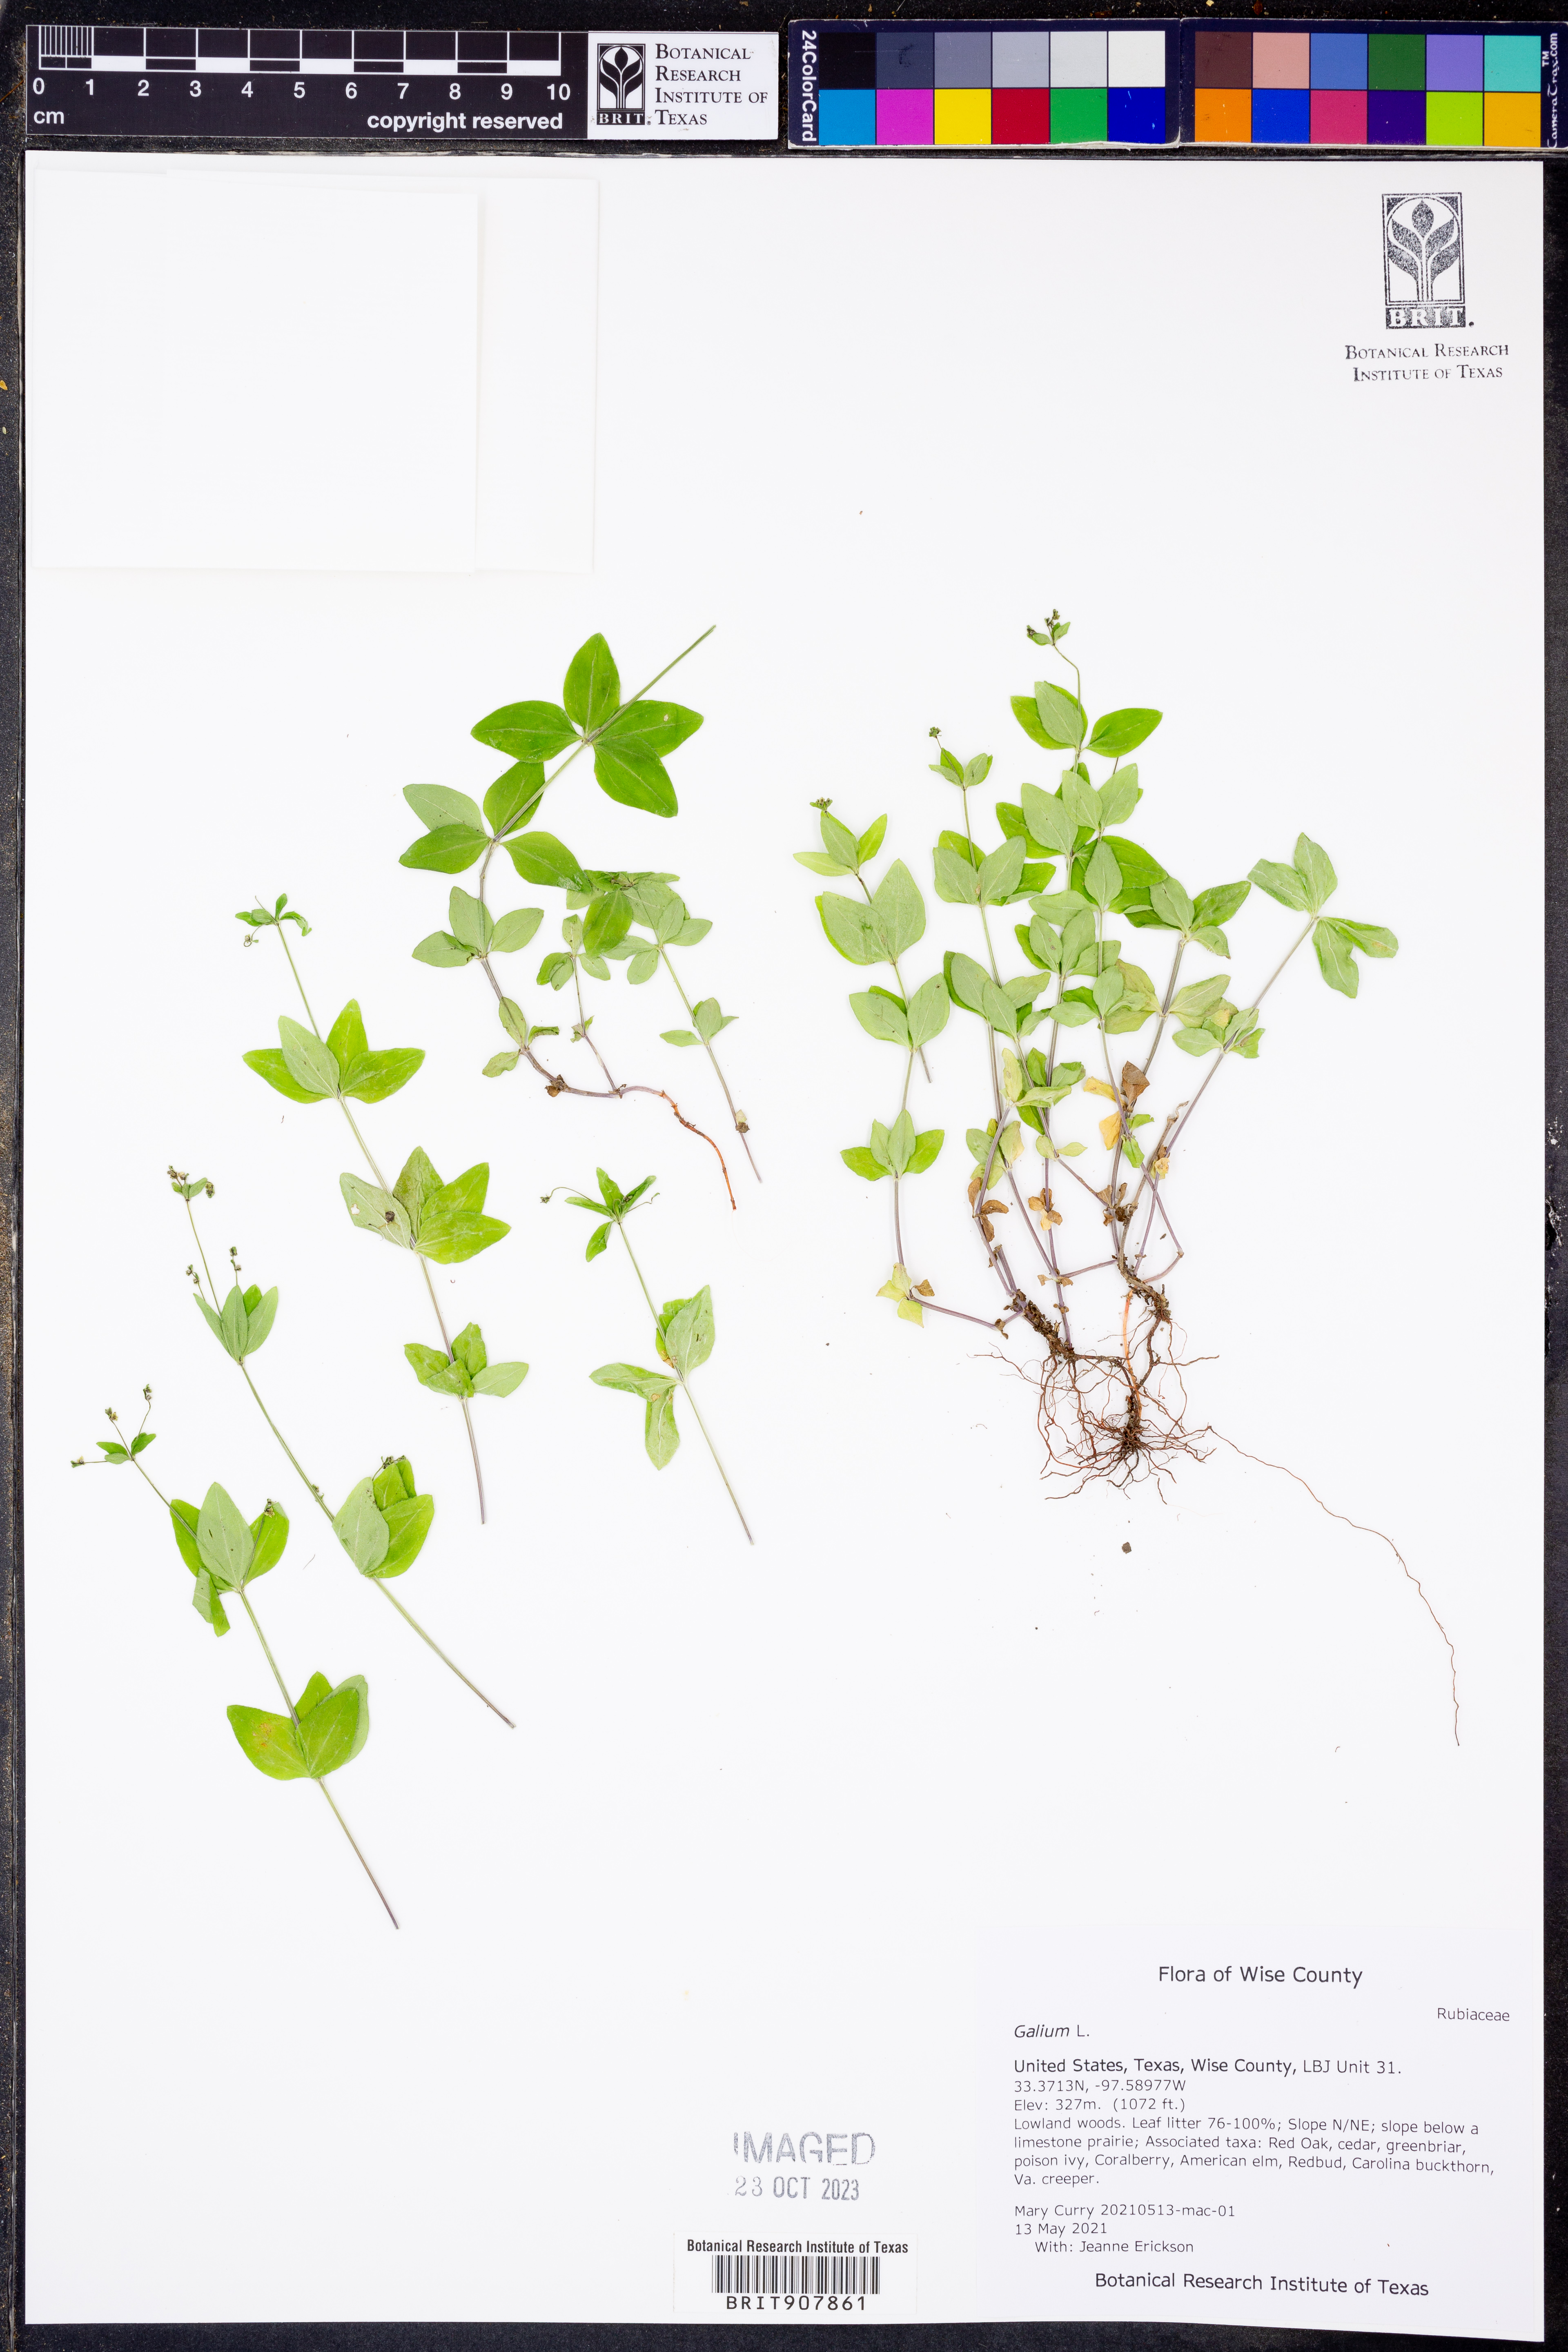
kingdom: Plantae
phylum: Tracheophyta
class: Magnoliopsida
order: Gentianales
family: Rubiaceae
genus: Galium
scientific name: Galium
